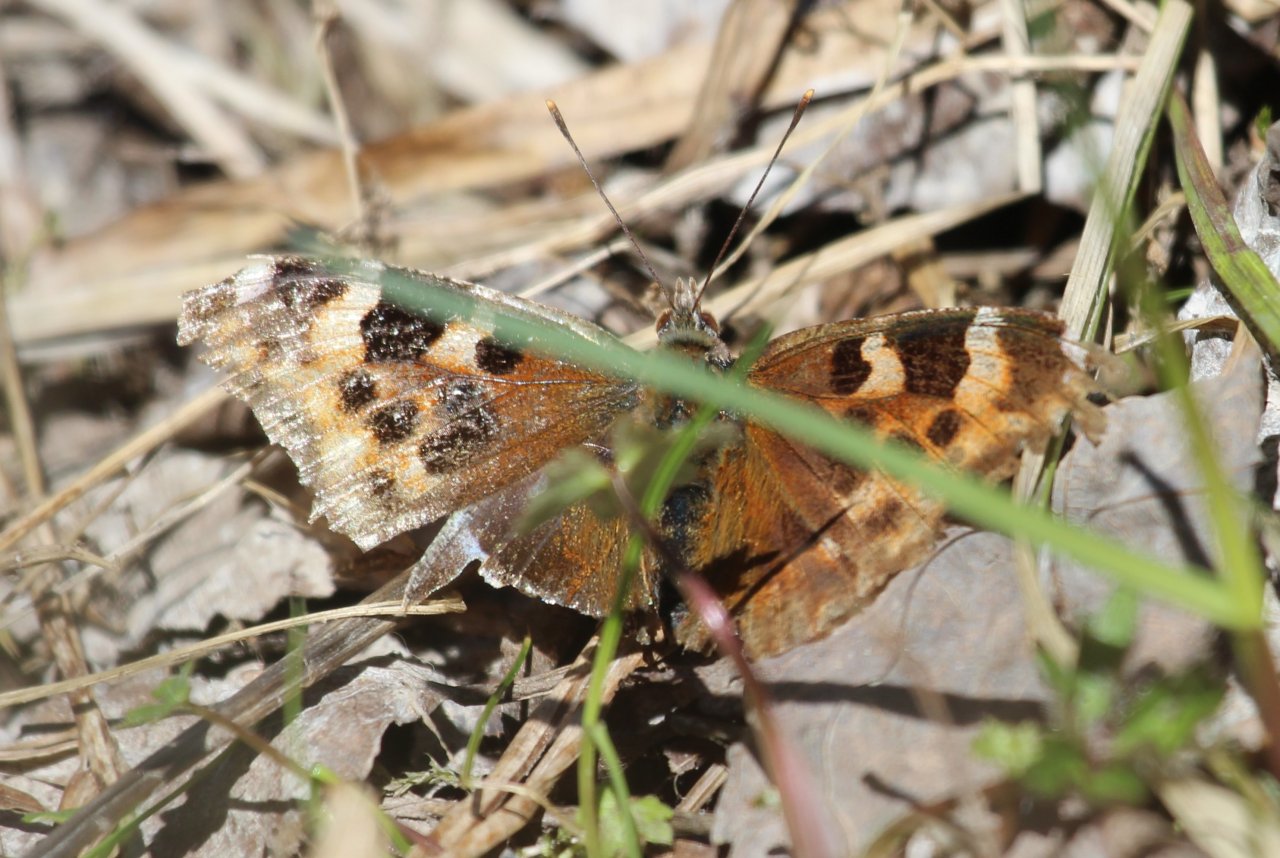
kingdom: Animalia
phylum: Arthropoda
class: Insecta
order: Lepidoptera
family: Nymphalidae
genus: Polygonia
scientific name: Polygonia vaualbum
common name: Compton Tortoiseshell
